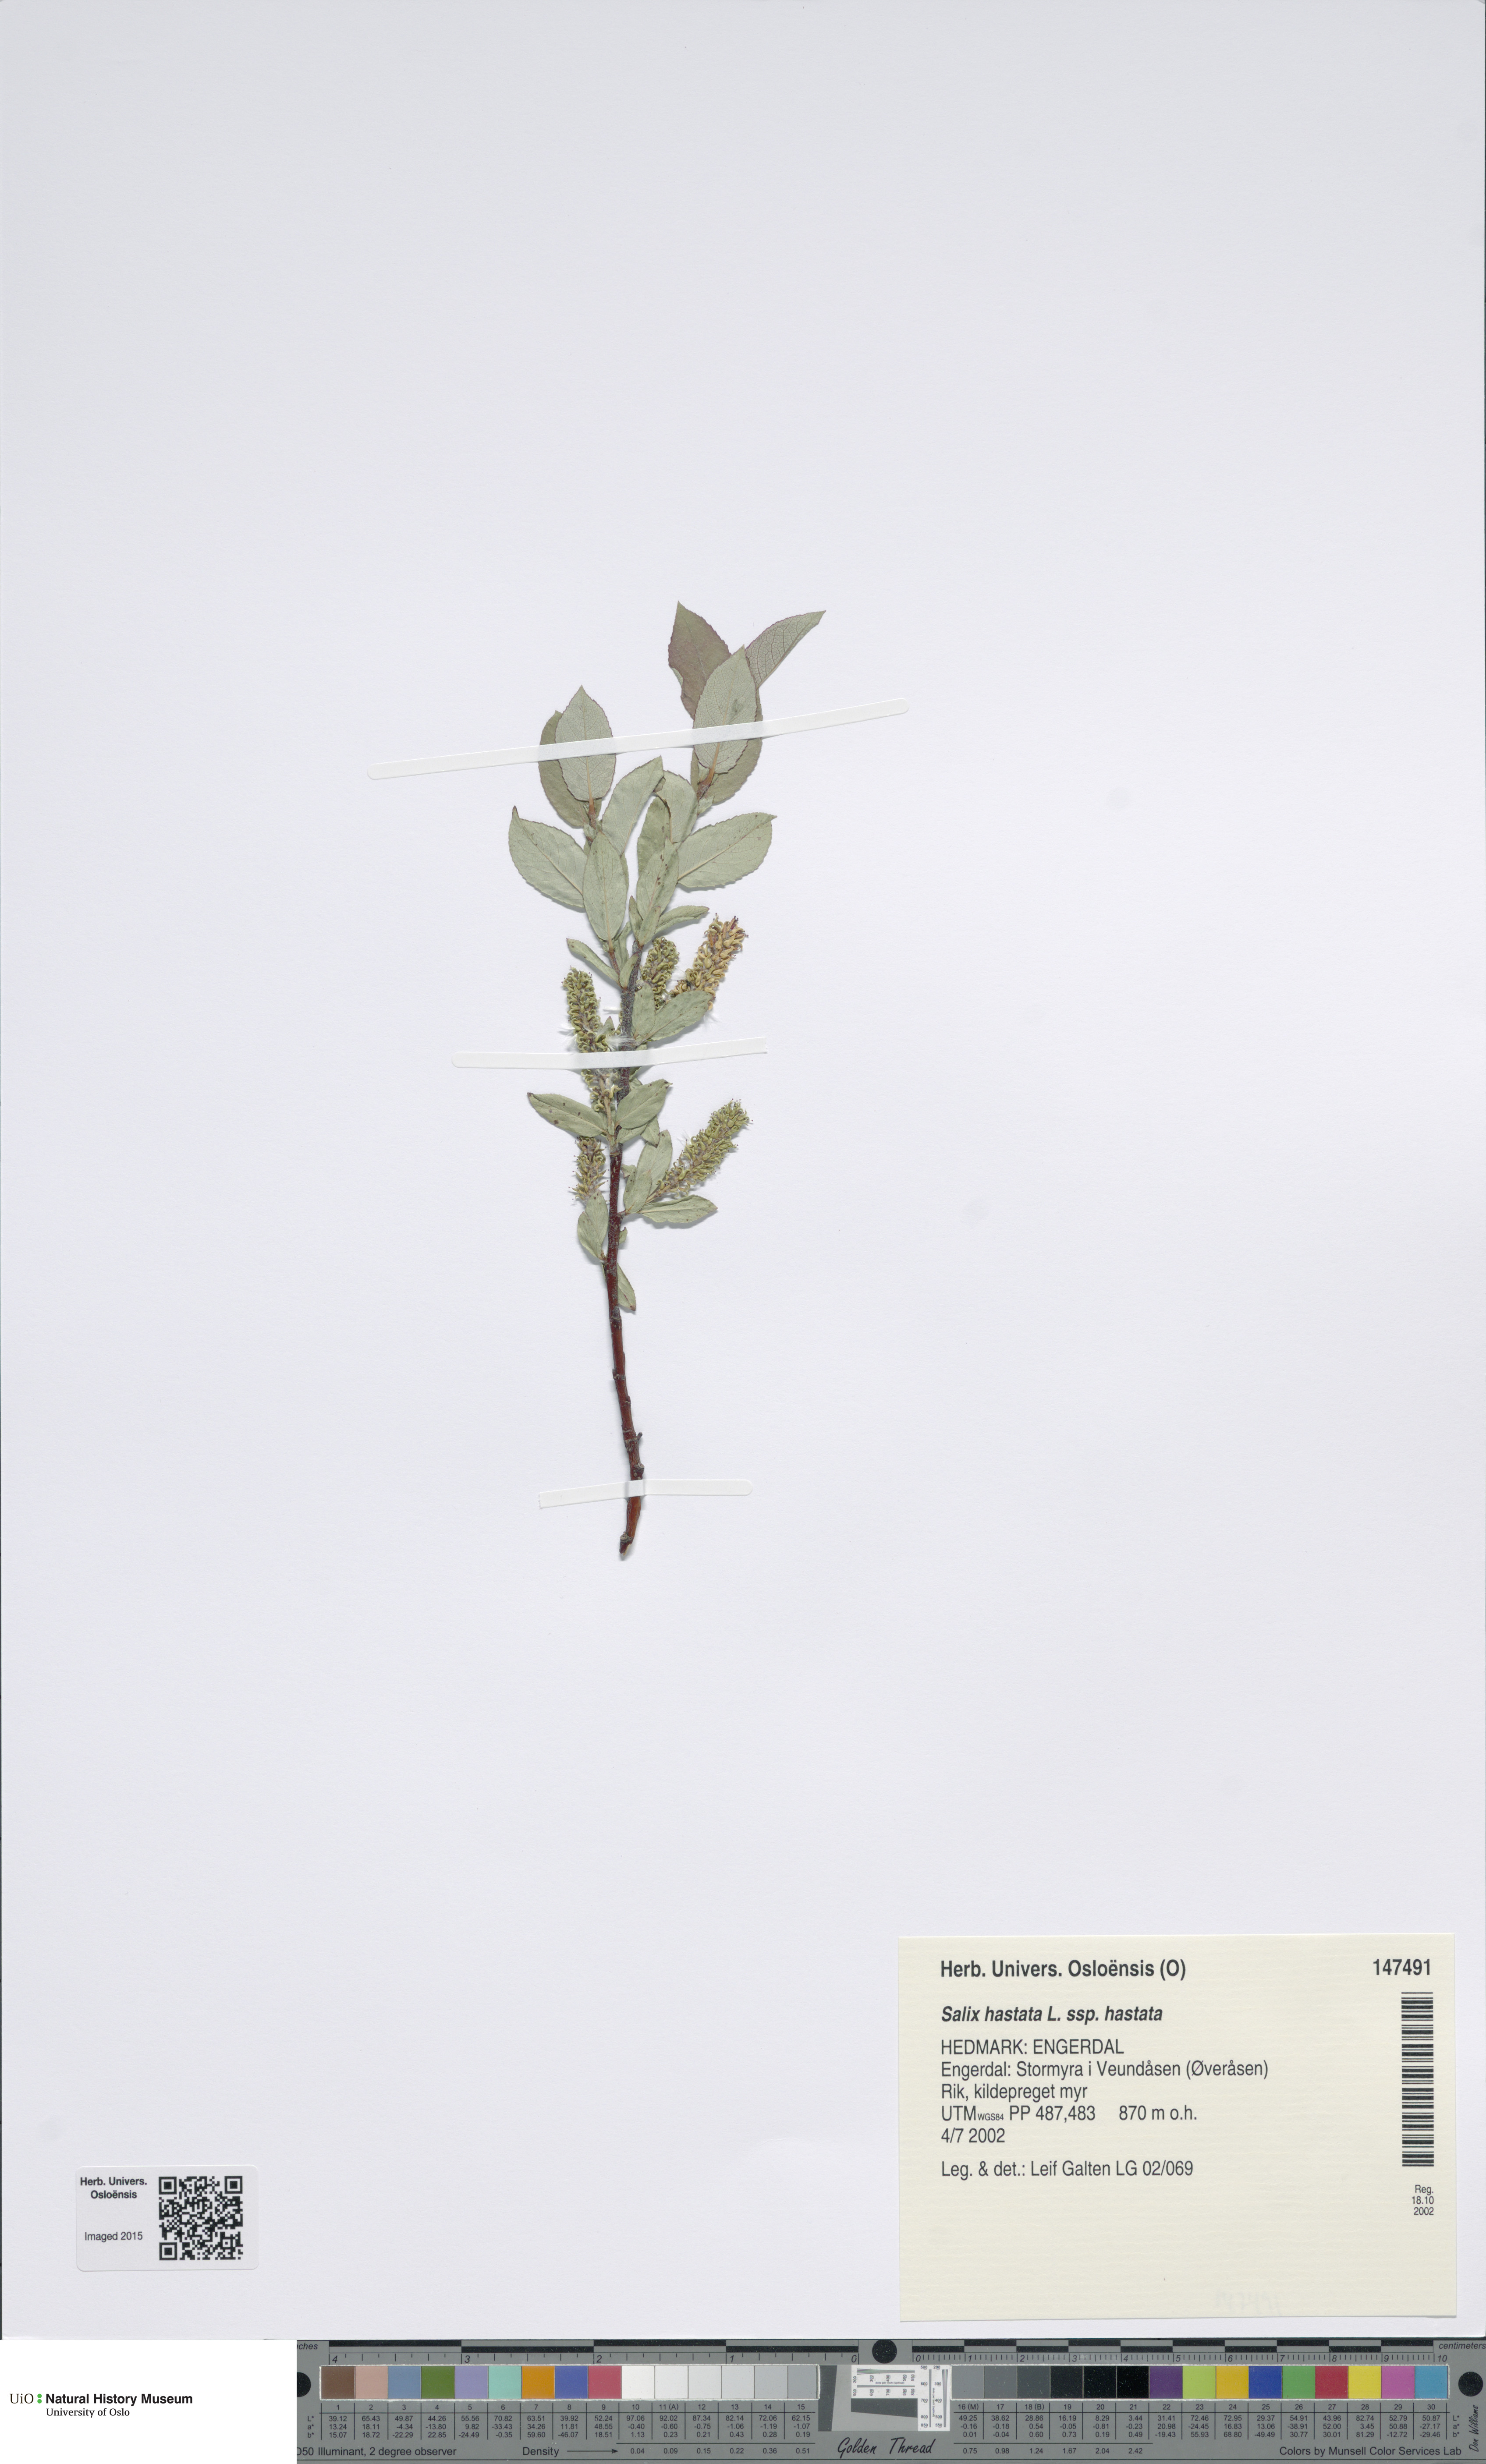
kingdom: Plantae
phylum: Tracheophyta
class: Magnoliopsida
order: Malpighiales
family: Salicaceae
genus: Salix
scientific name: Salix hastata
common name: Halberd willow
